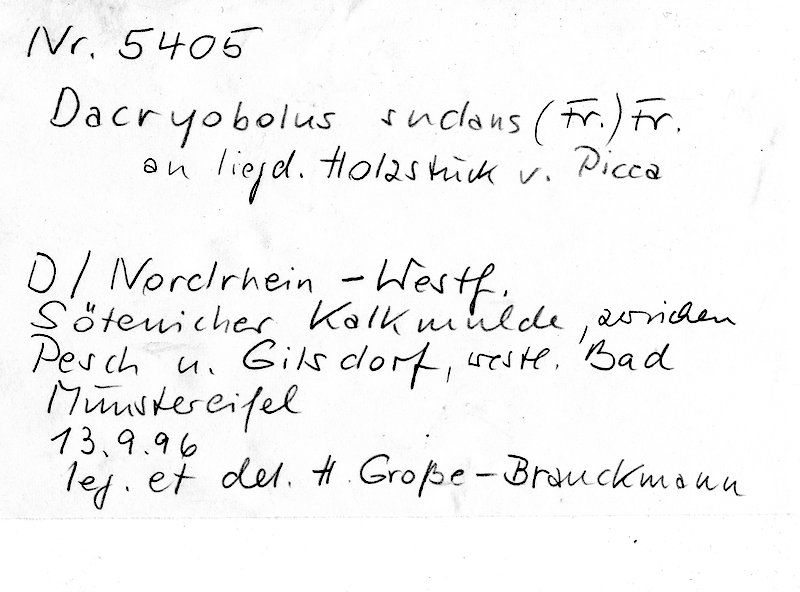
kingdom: Plantae
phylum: Tracheophyta
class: Pinopsida
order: Pinales
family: Pinaceae
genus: Picea
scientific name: Picea
